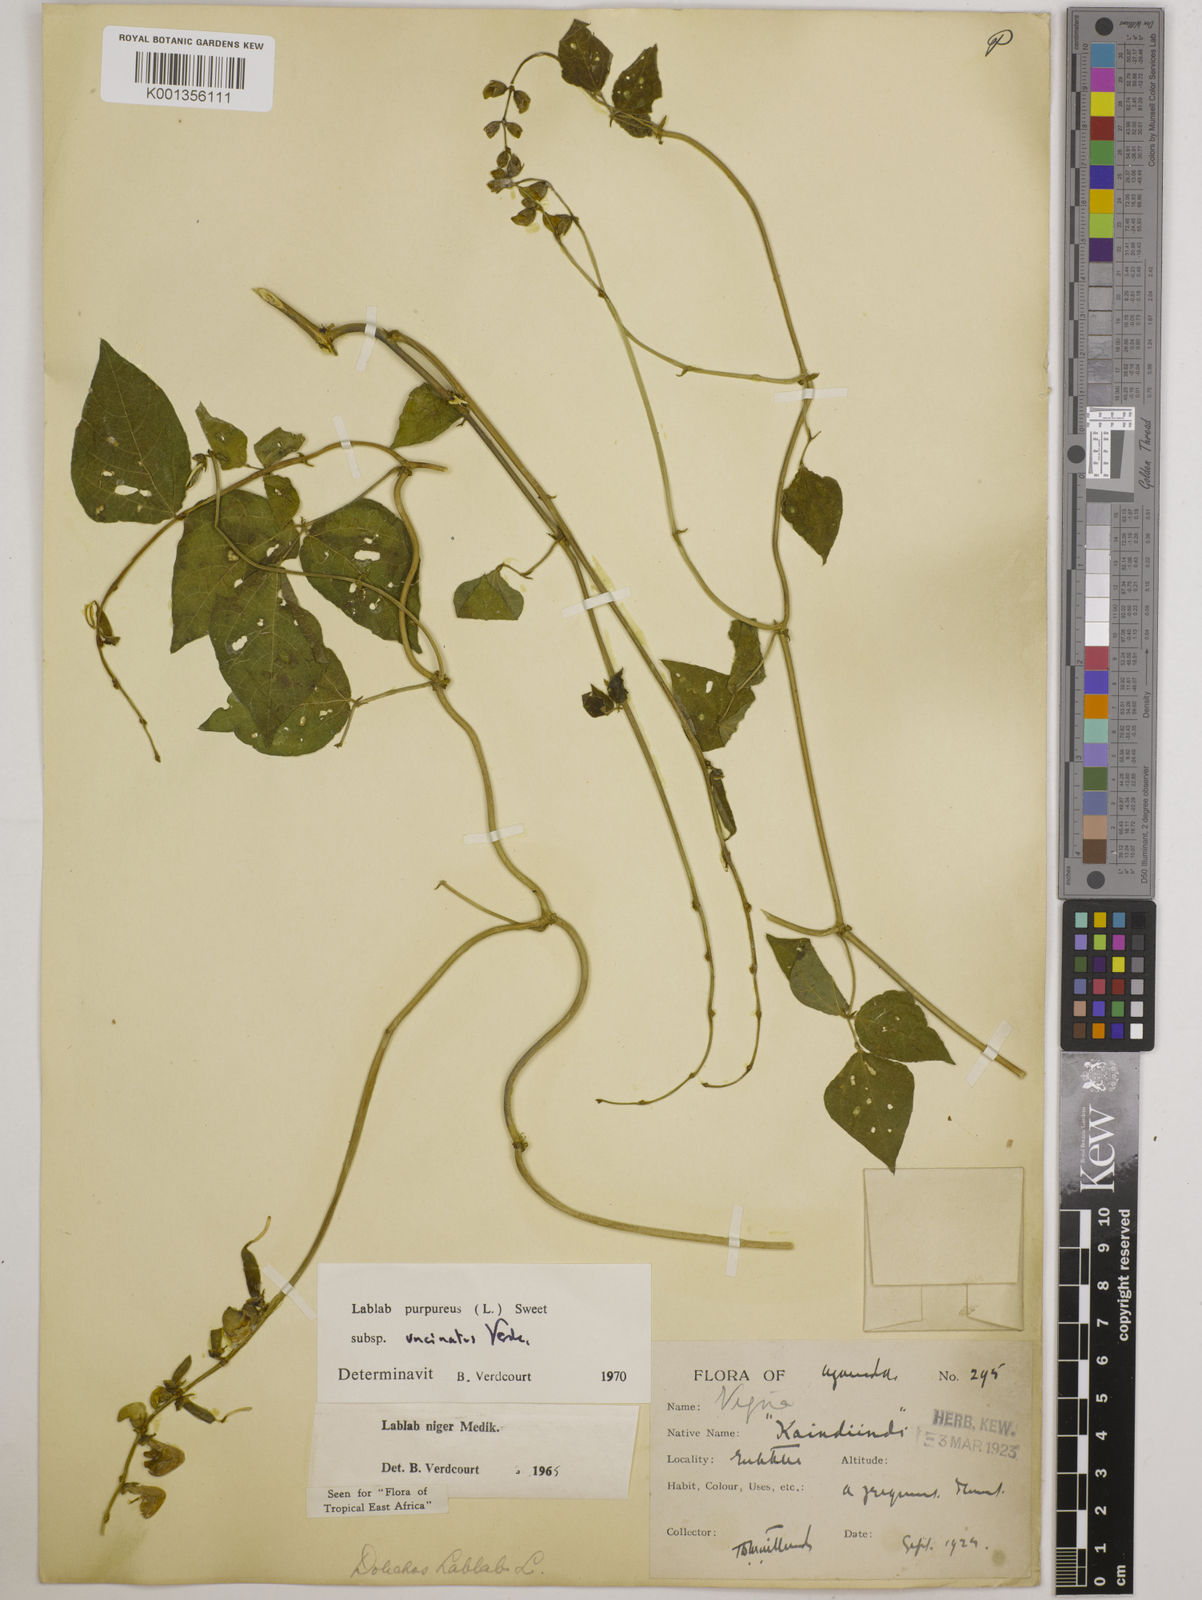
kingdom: Plantae
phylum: Tracheophyta
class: Magnoliopsida
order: Fabales
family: Fabaceae
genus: Lablab
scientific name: Lablab purpureus
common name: Lablab-bean
